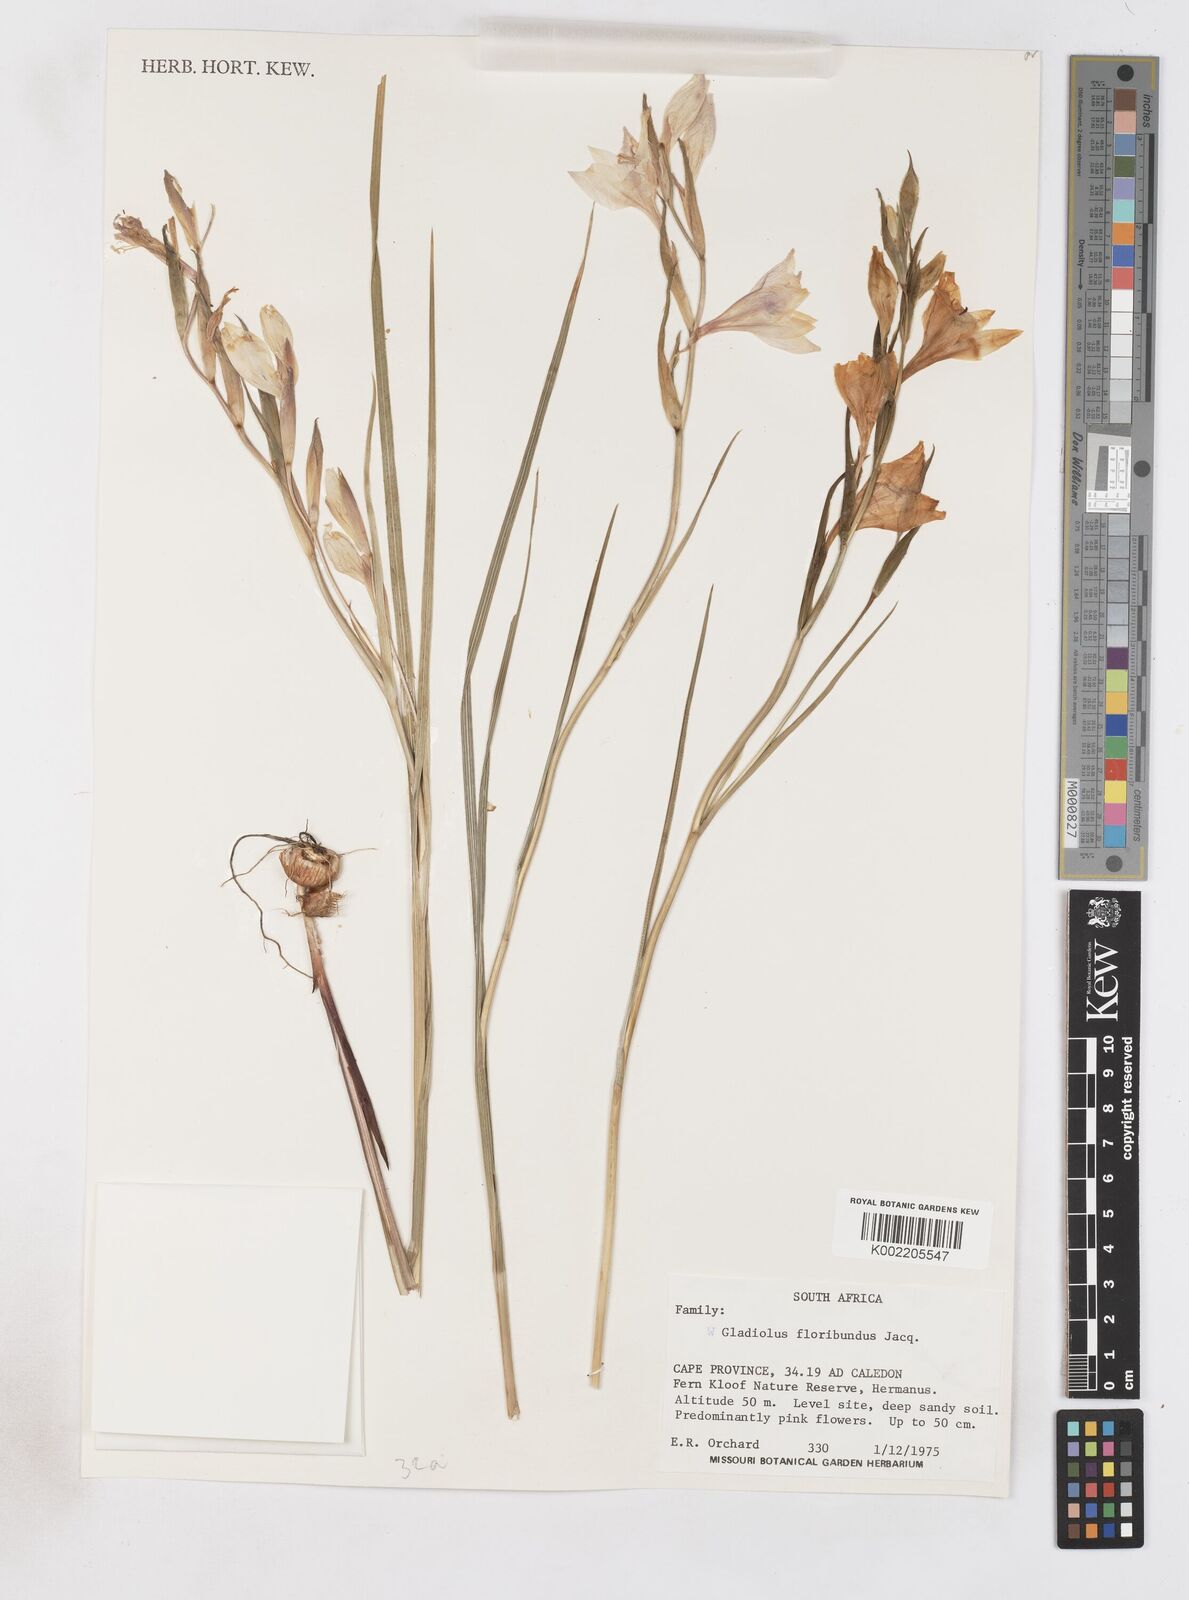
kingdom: Plantae
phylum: Tracheophyta
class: Liliopsida
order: Asparagales
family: Iridaceae
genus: Gladiolus
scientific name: Gladiolus carneus
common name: Painted-lady
